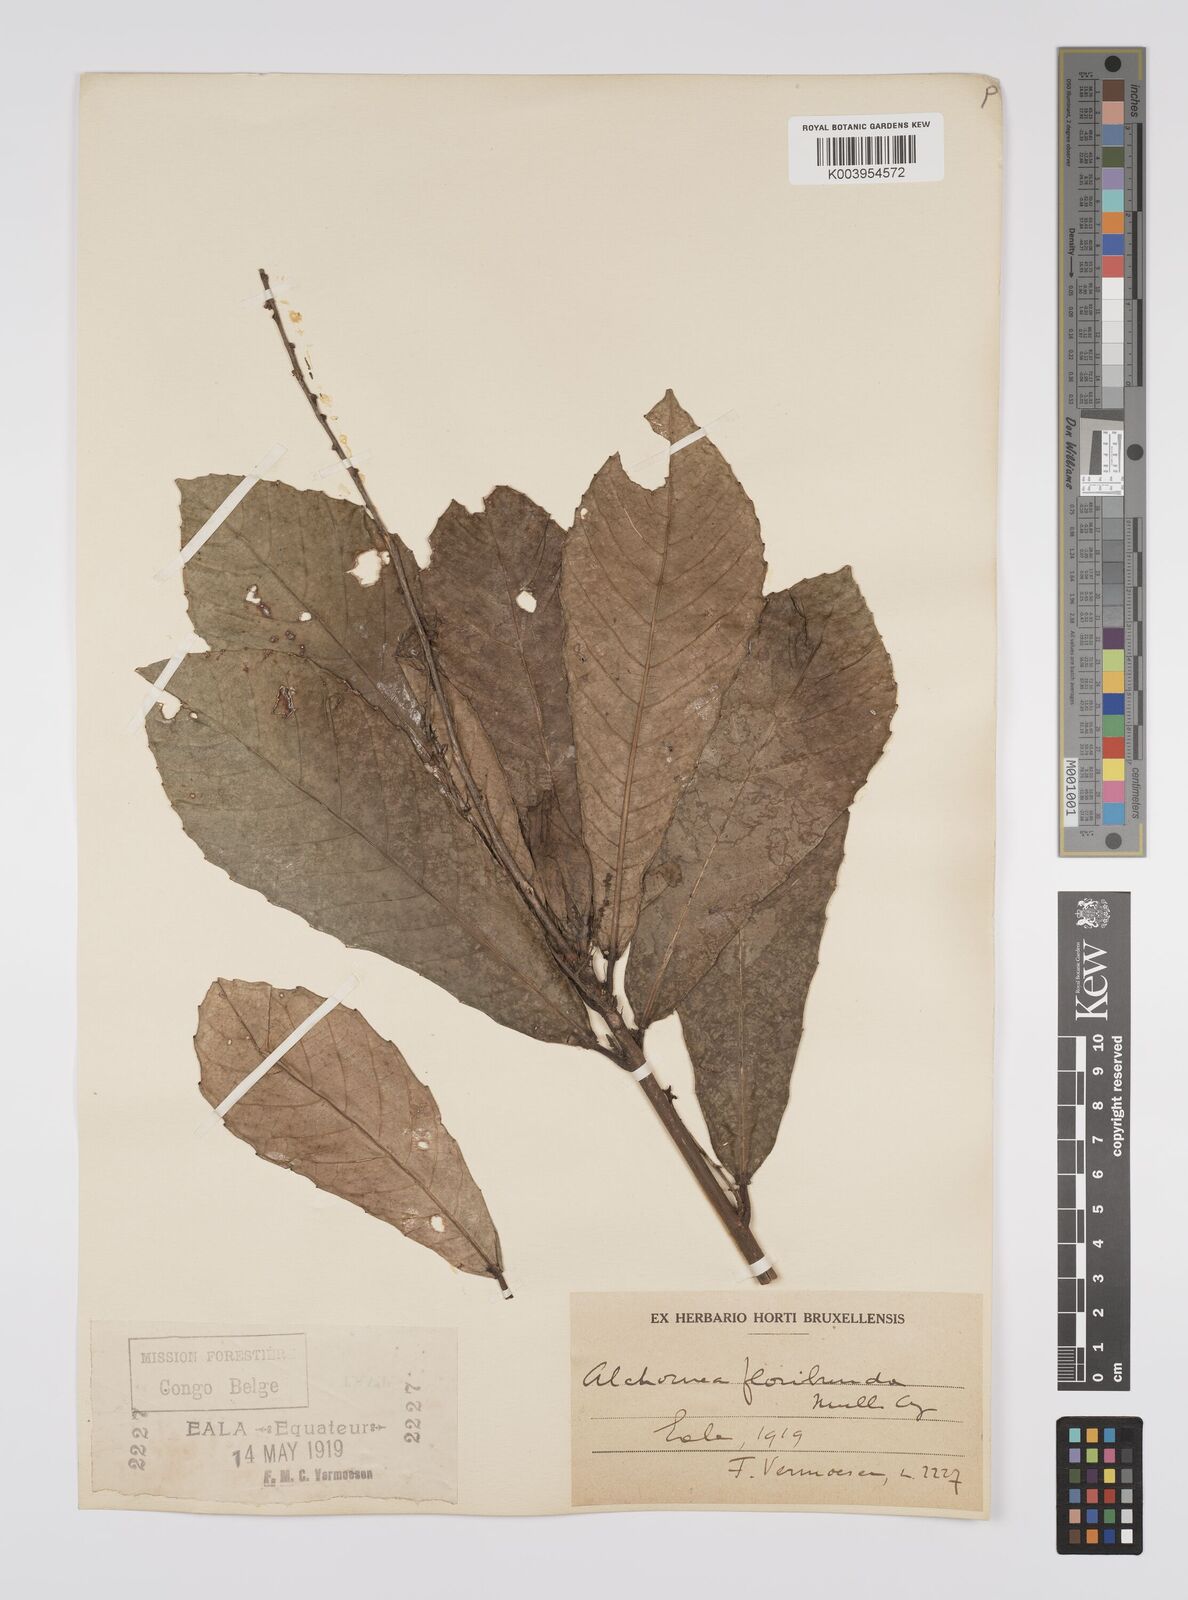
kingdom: Plantae
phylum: Tracheophyta
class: Magnoliopsida
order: Malpighiales
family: Euphorbiaceae
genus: Alchornea
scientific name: Alchornea floribunda
